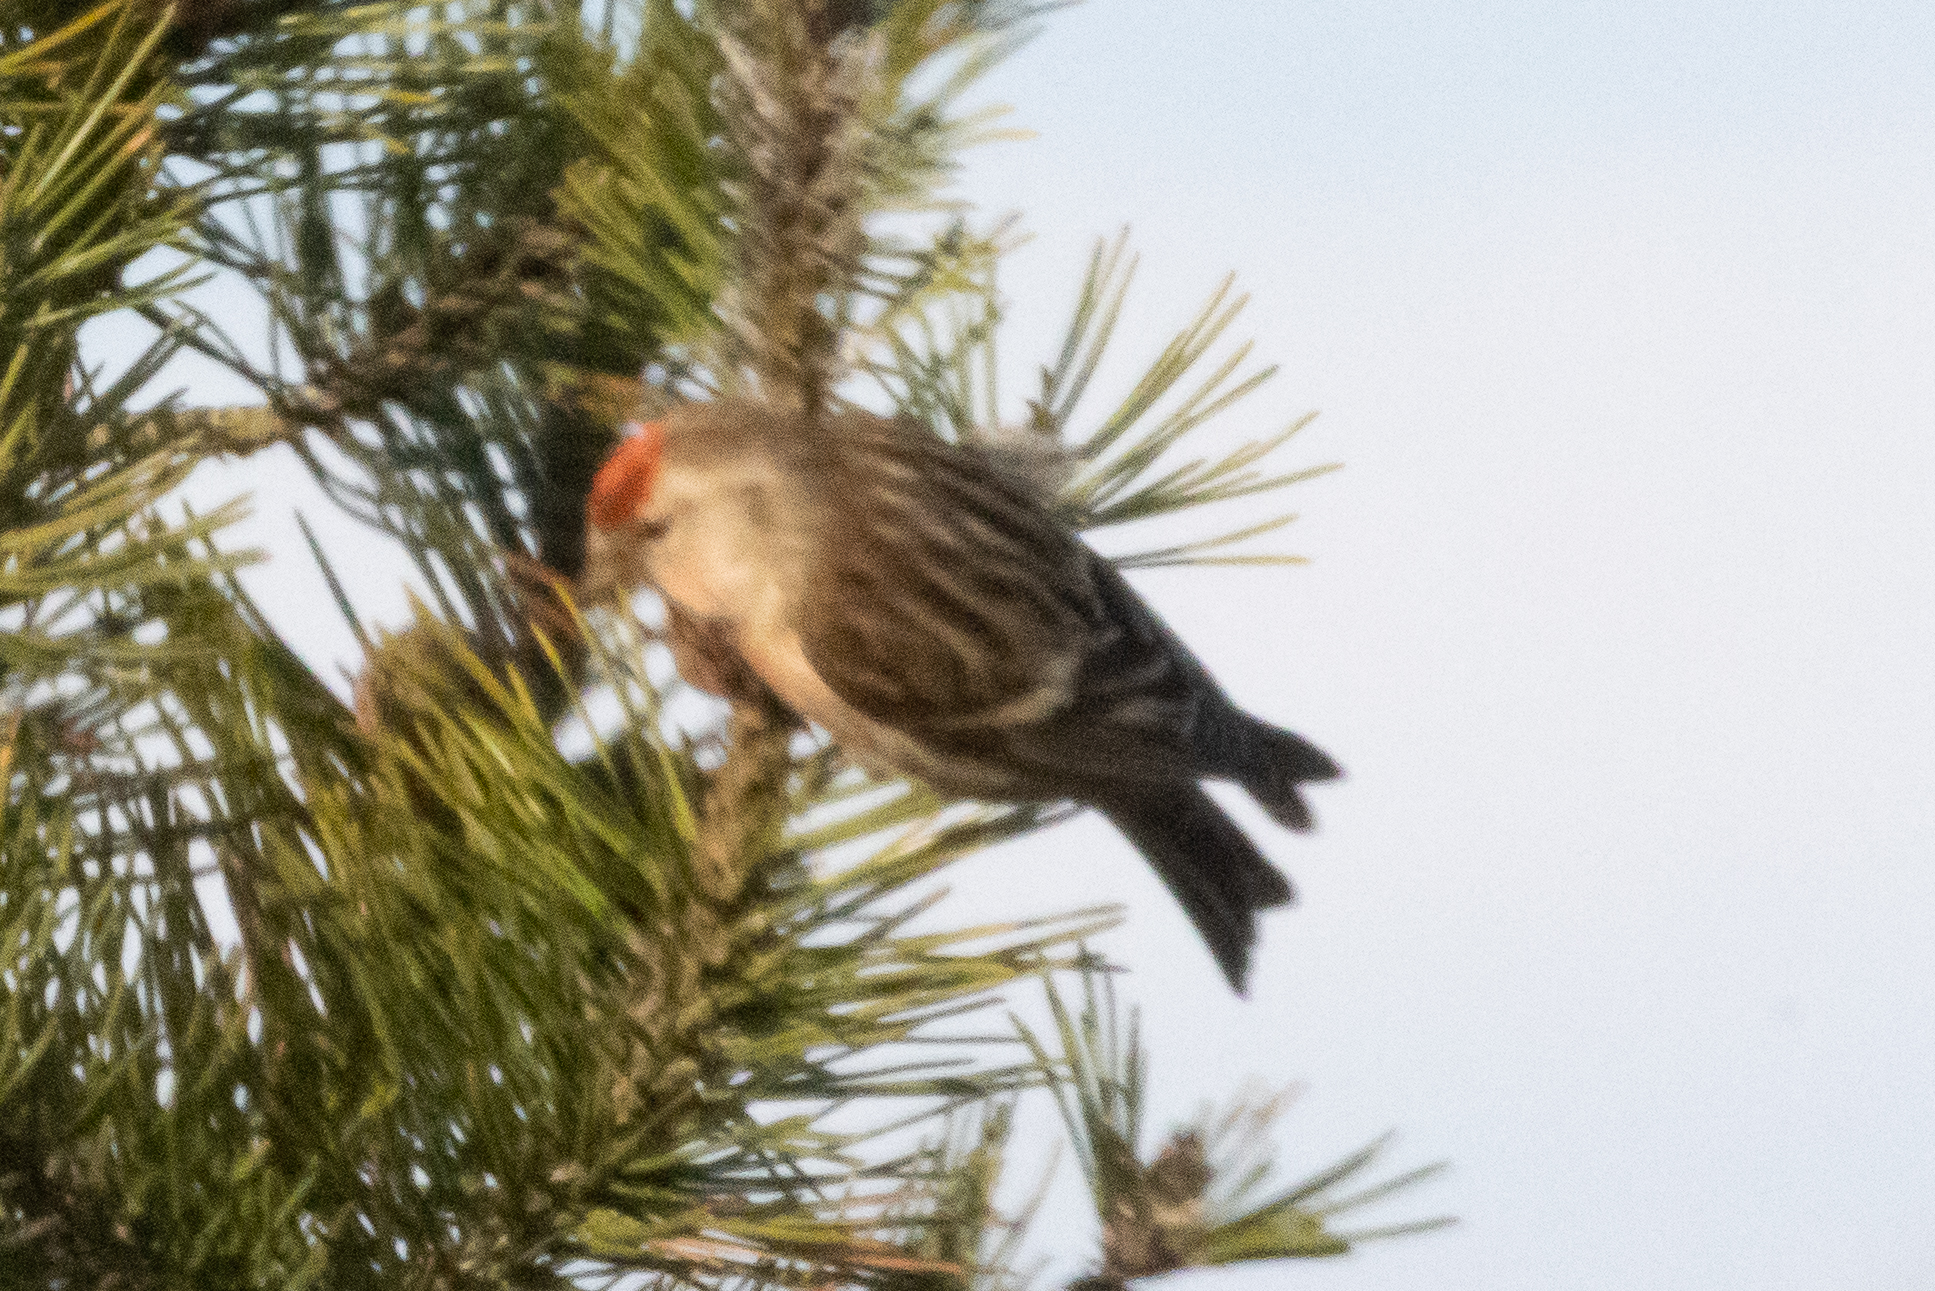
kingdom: Animalia
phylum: Chordata
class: Aves
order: Passeriformes
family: Fringillidae
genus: Acanthis
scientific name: Acanthis flammea
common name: Lille gråsisken
